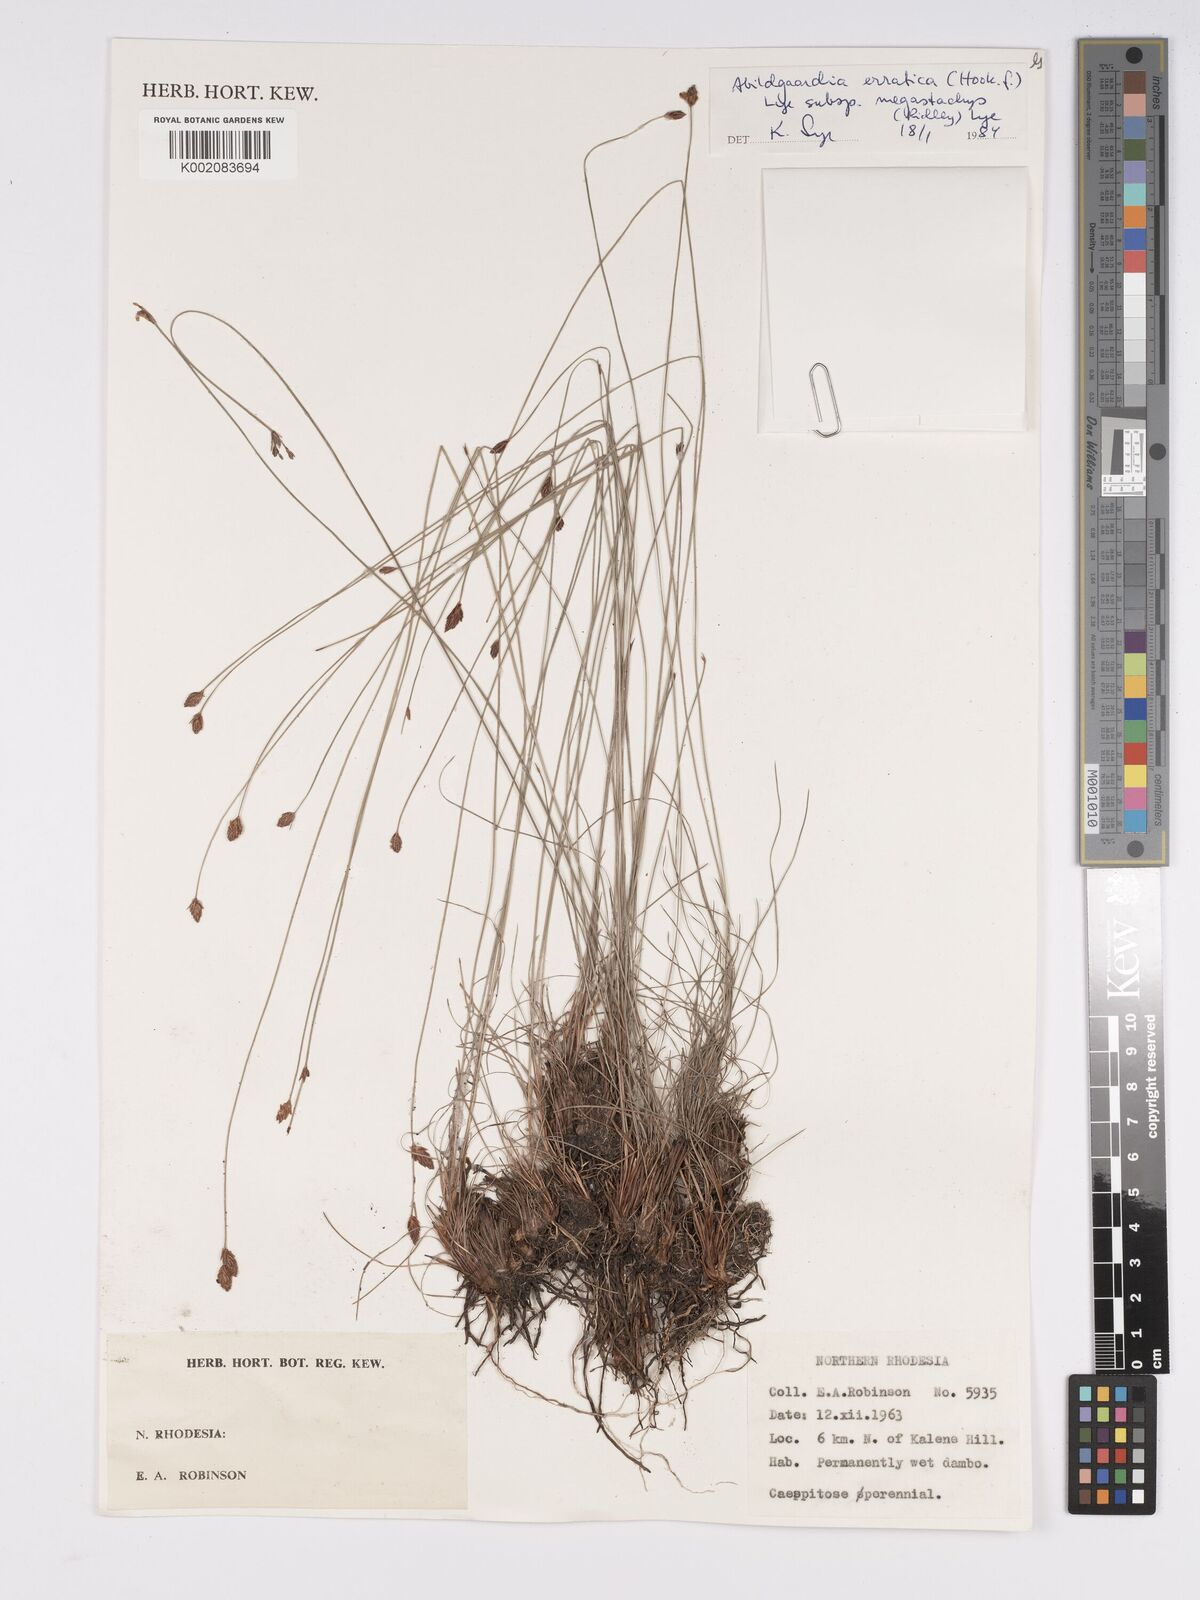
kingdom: Plantae
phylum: Tracheophyta
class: Liliopsida
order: Poales
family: Cyperaceae
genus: Bulbostylis
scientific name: Bulbostylis schoenoides
